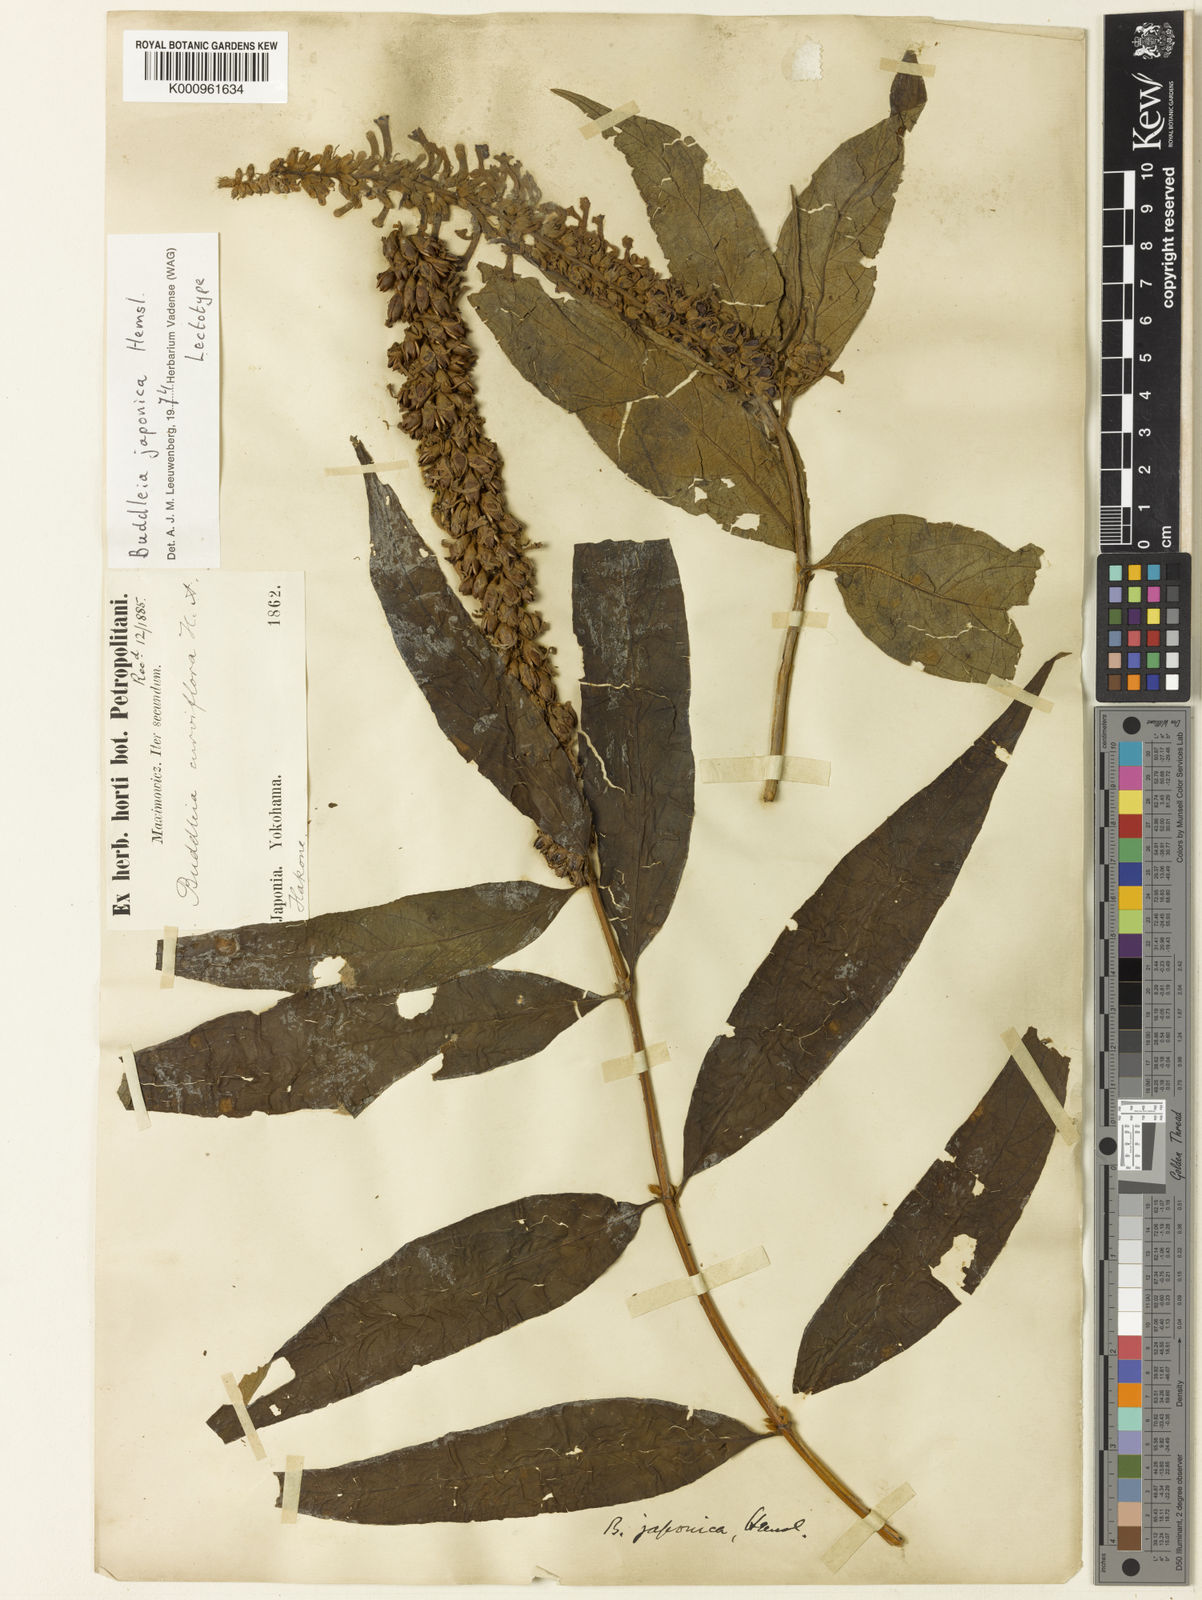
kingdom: Plantae
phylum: Tracheophyta
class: Magnoliopsida
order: Lamiales
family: Scrophulariaceae
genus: Buddleja
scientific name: Buddleja japonica
